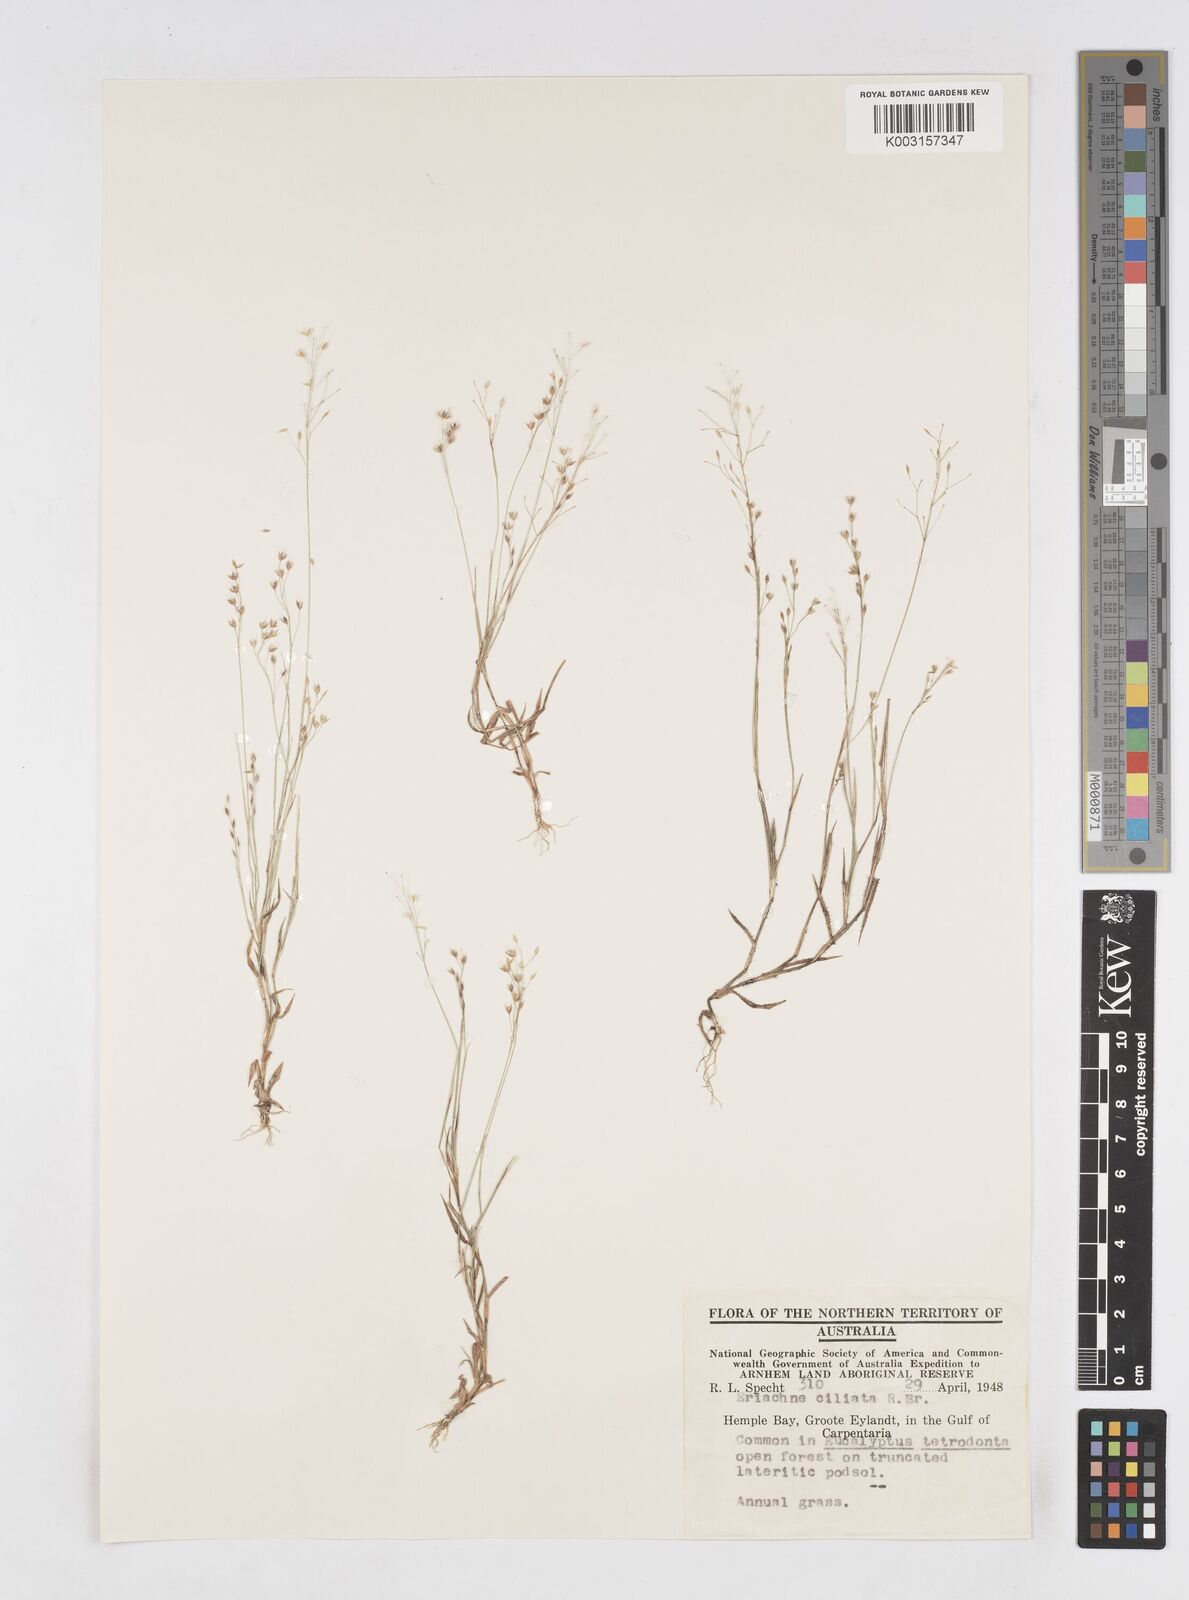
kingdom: Plantae
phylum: Tracheophyta
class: Liliopsida
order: Poales
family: Poaceae
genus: Eriachne
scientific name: Eriachne ciliata
